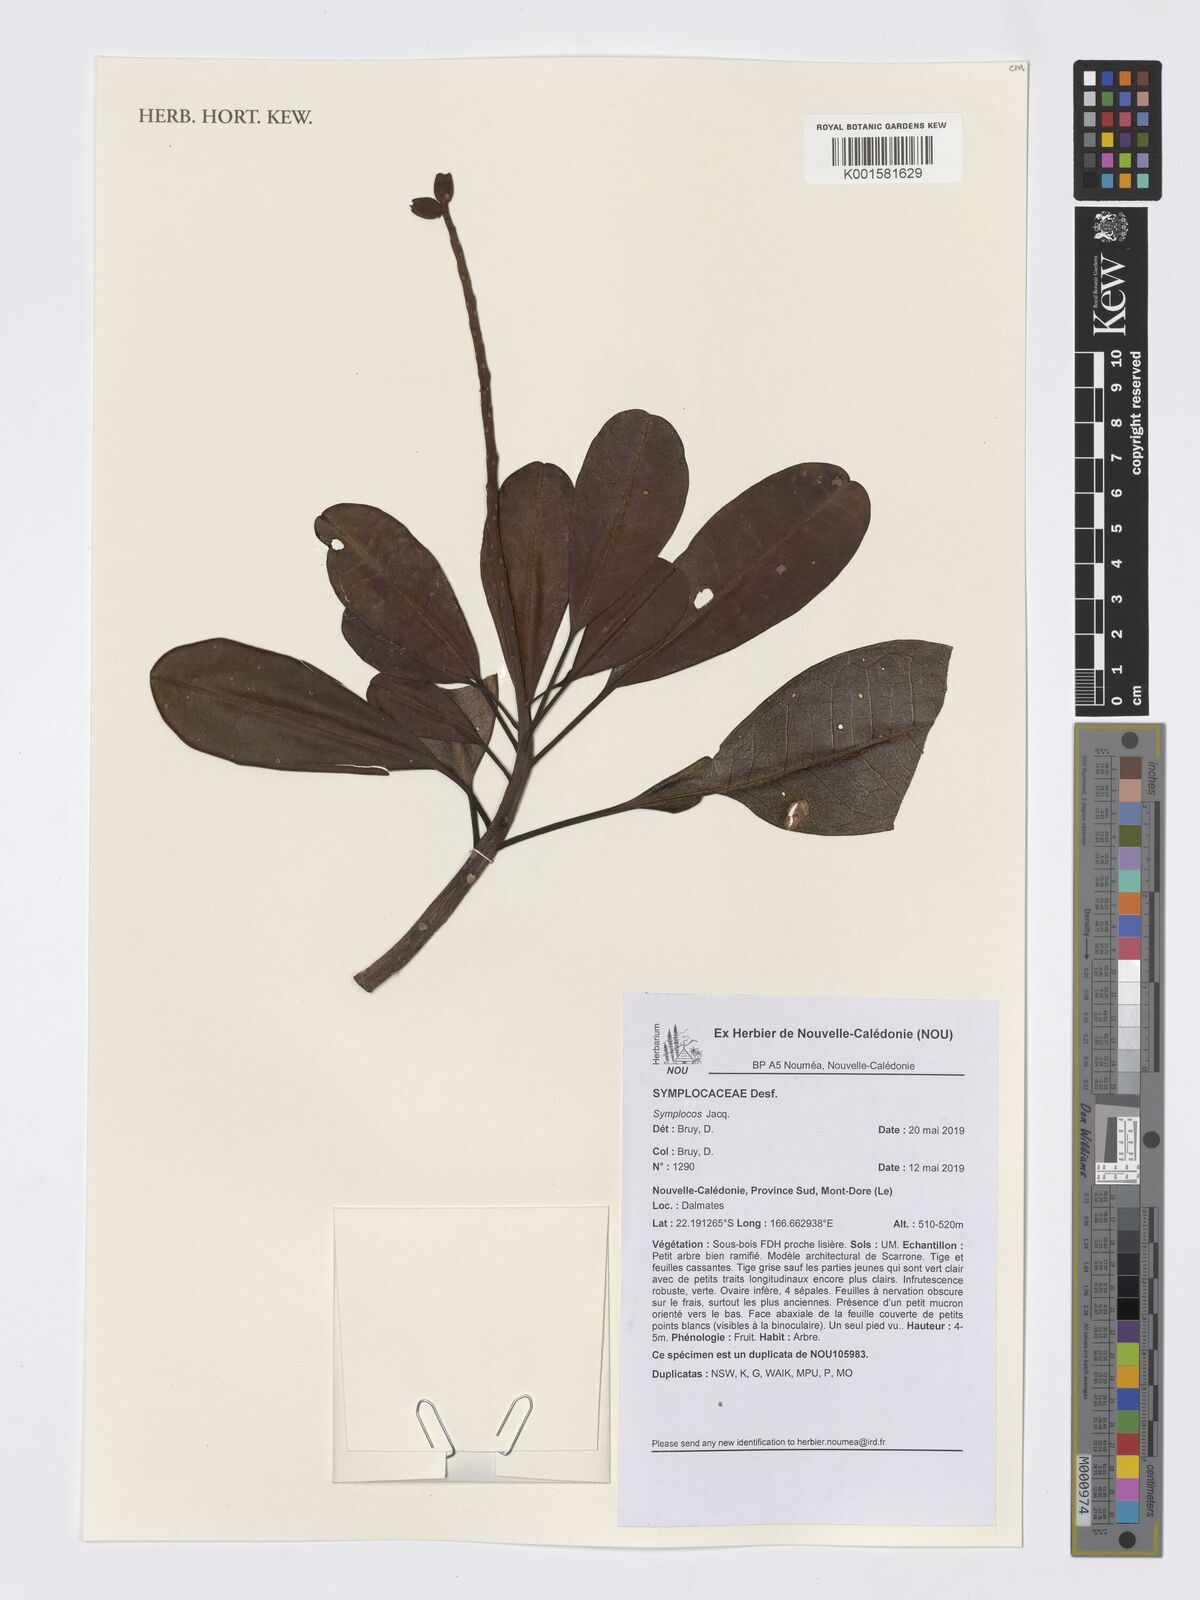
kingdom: Plantae
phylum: Tracheophyta
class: Magnoliopsida
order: Ericales
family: Symplocaceae
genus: Symplocos
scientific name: Symplocos
